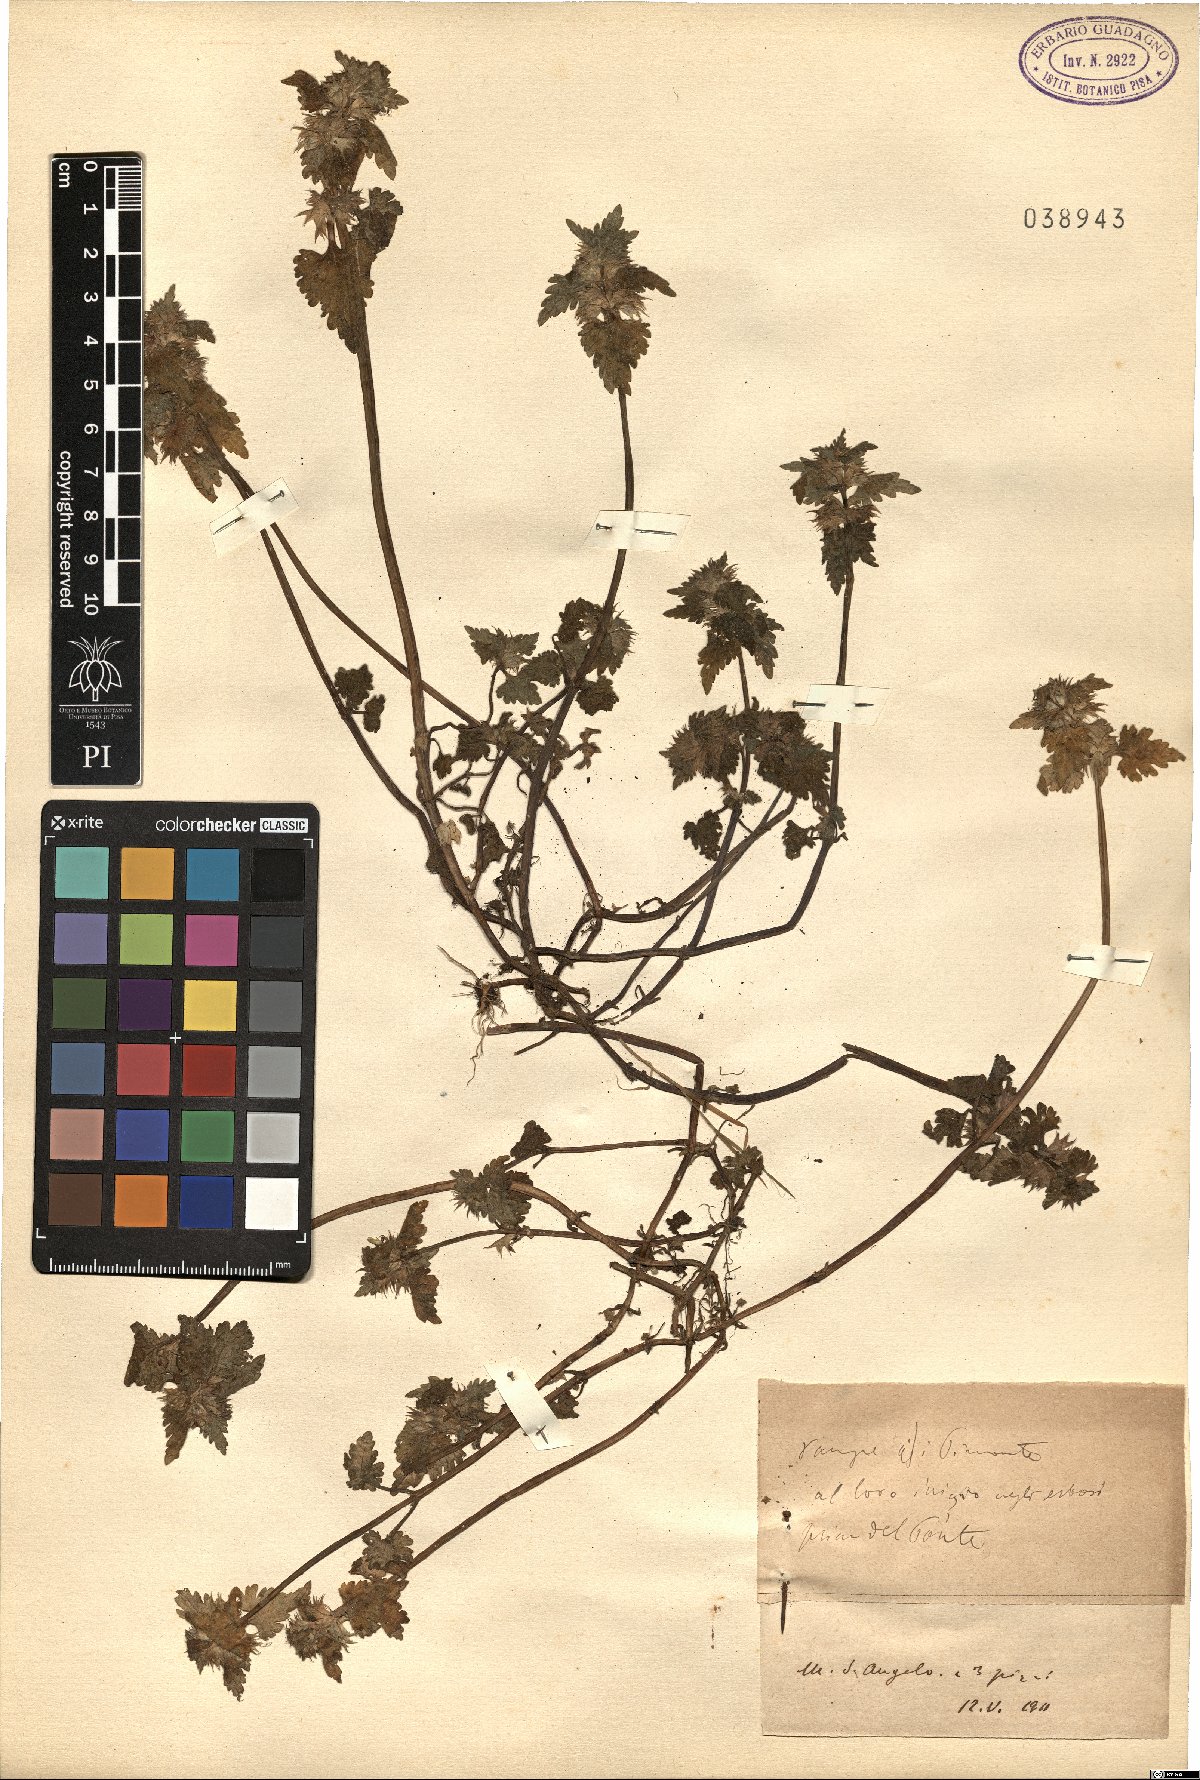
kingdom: Plantae
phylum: Tracheophyta
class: Magnoliopsida
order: Lamiales
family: Lamiaceae
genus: Lamium
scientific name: Lamium
